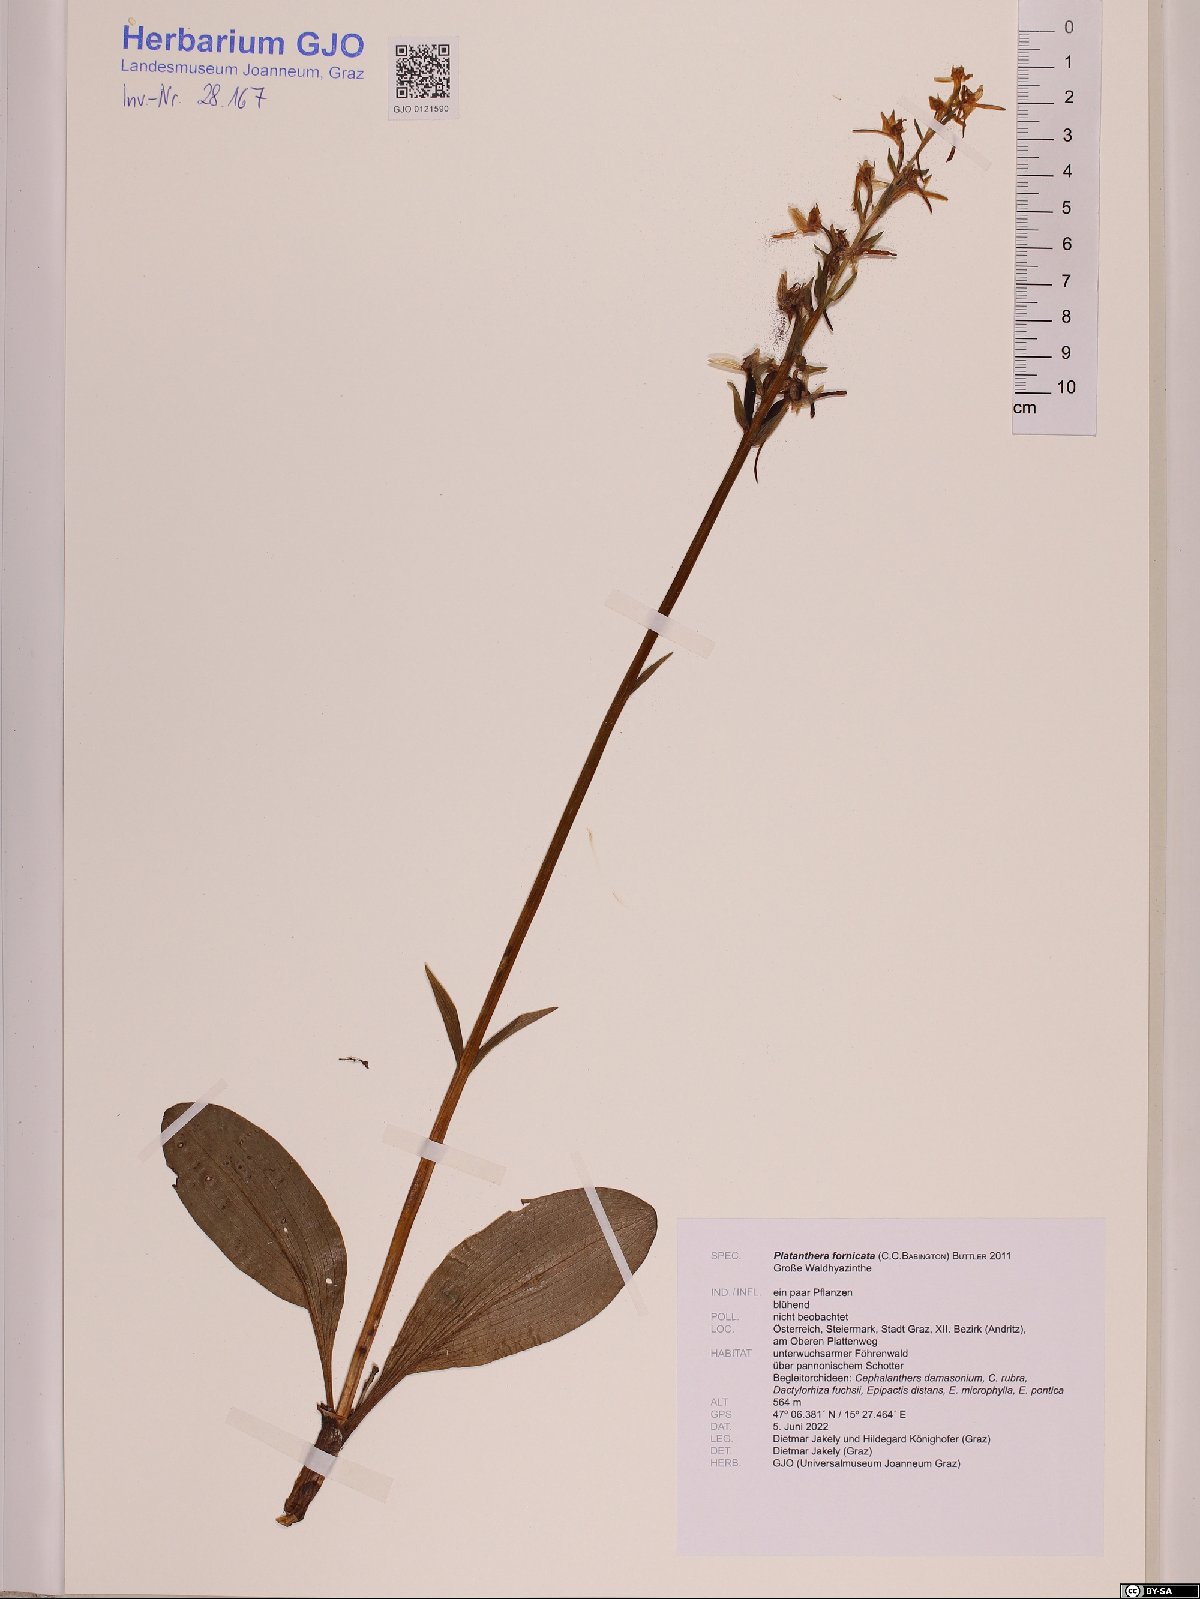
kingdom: Plantae
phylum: Tracheophyta
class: Liliopsida
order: Asparagales
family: Orchidaceae
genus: Platanthera
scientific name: Platanthera bifolia
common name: Lesser butterfly-orchid
